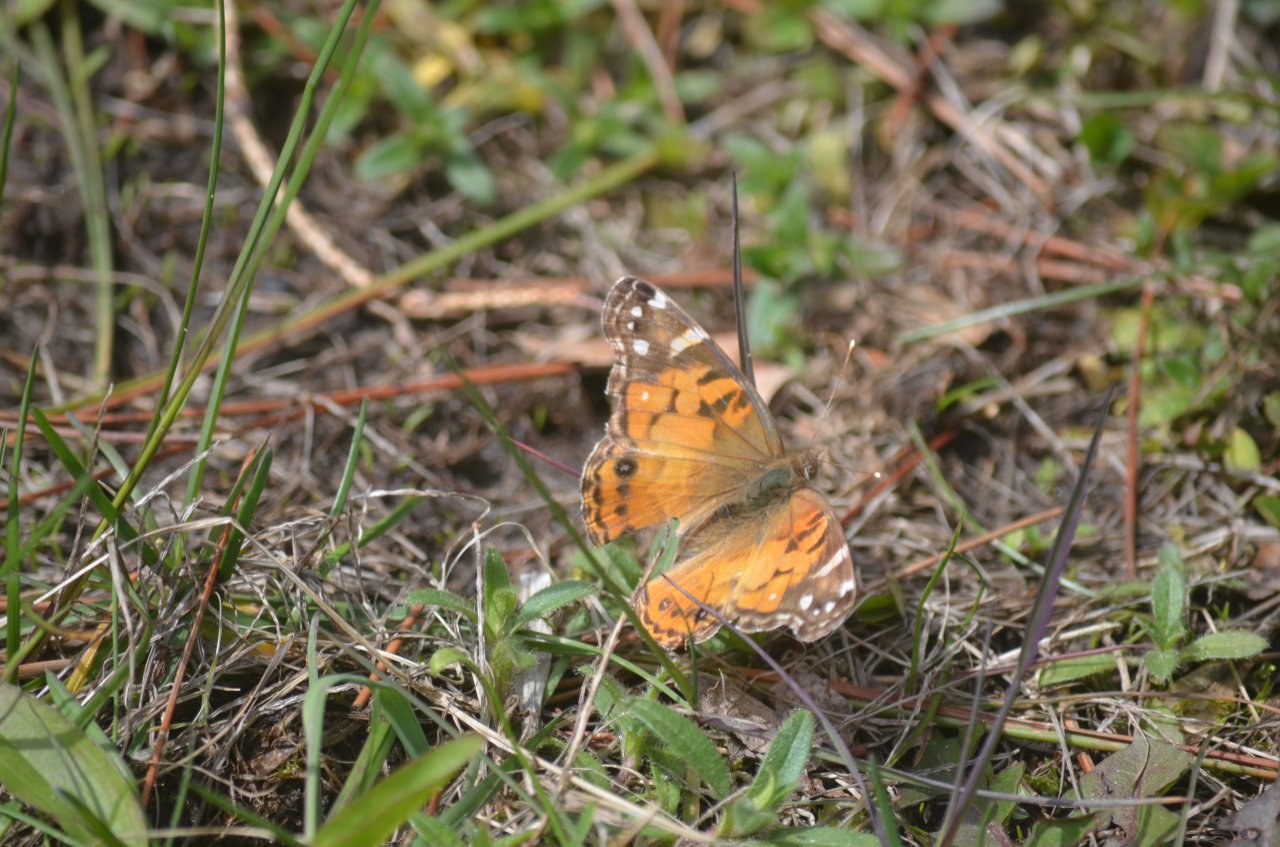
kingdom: Animalia
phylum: Arthropoda
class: Insecta
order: Lepidoptera
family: Nymphalidae
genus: Vanessa
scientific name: Vanessa virginiensis
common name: American Lady
